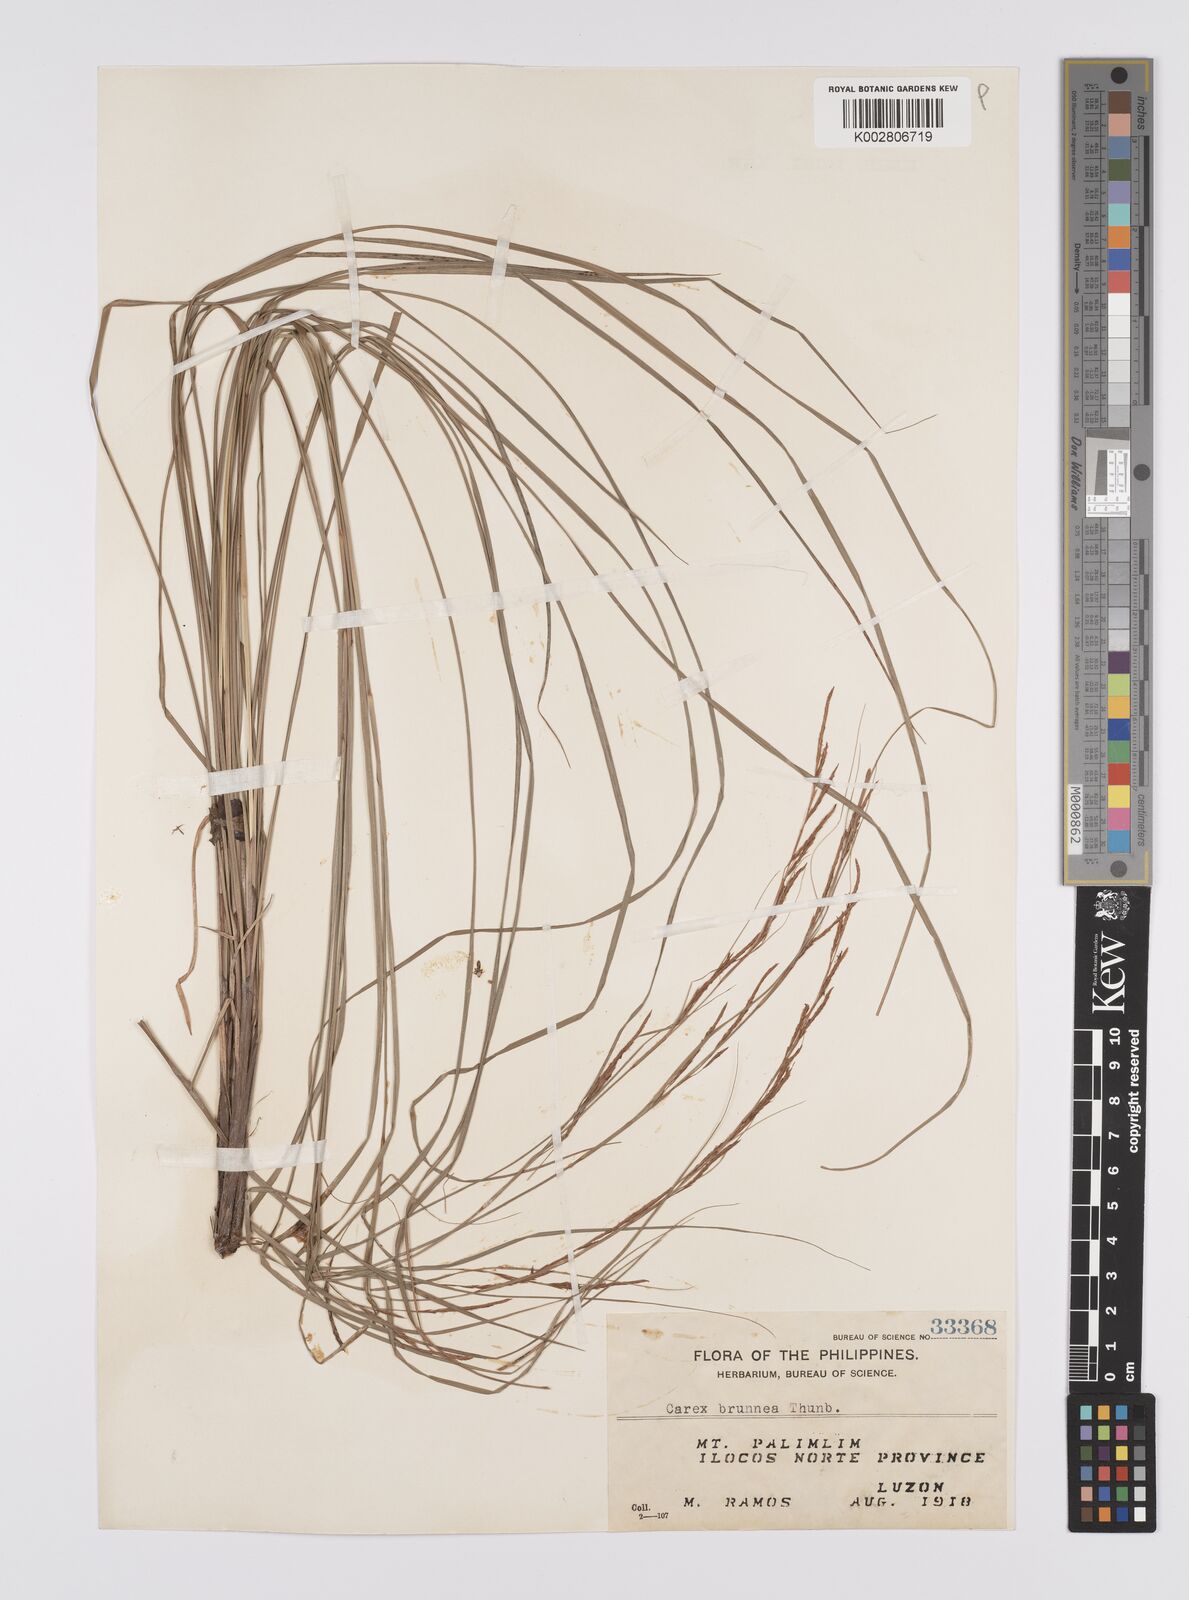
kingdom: Plantae
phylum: Tracheophyta
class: Liliopsida
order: Poales
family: Cyperaceae
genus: Carex
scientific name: Carex brunnea
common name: Greater brown sedge
